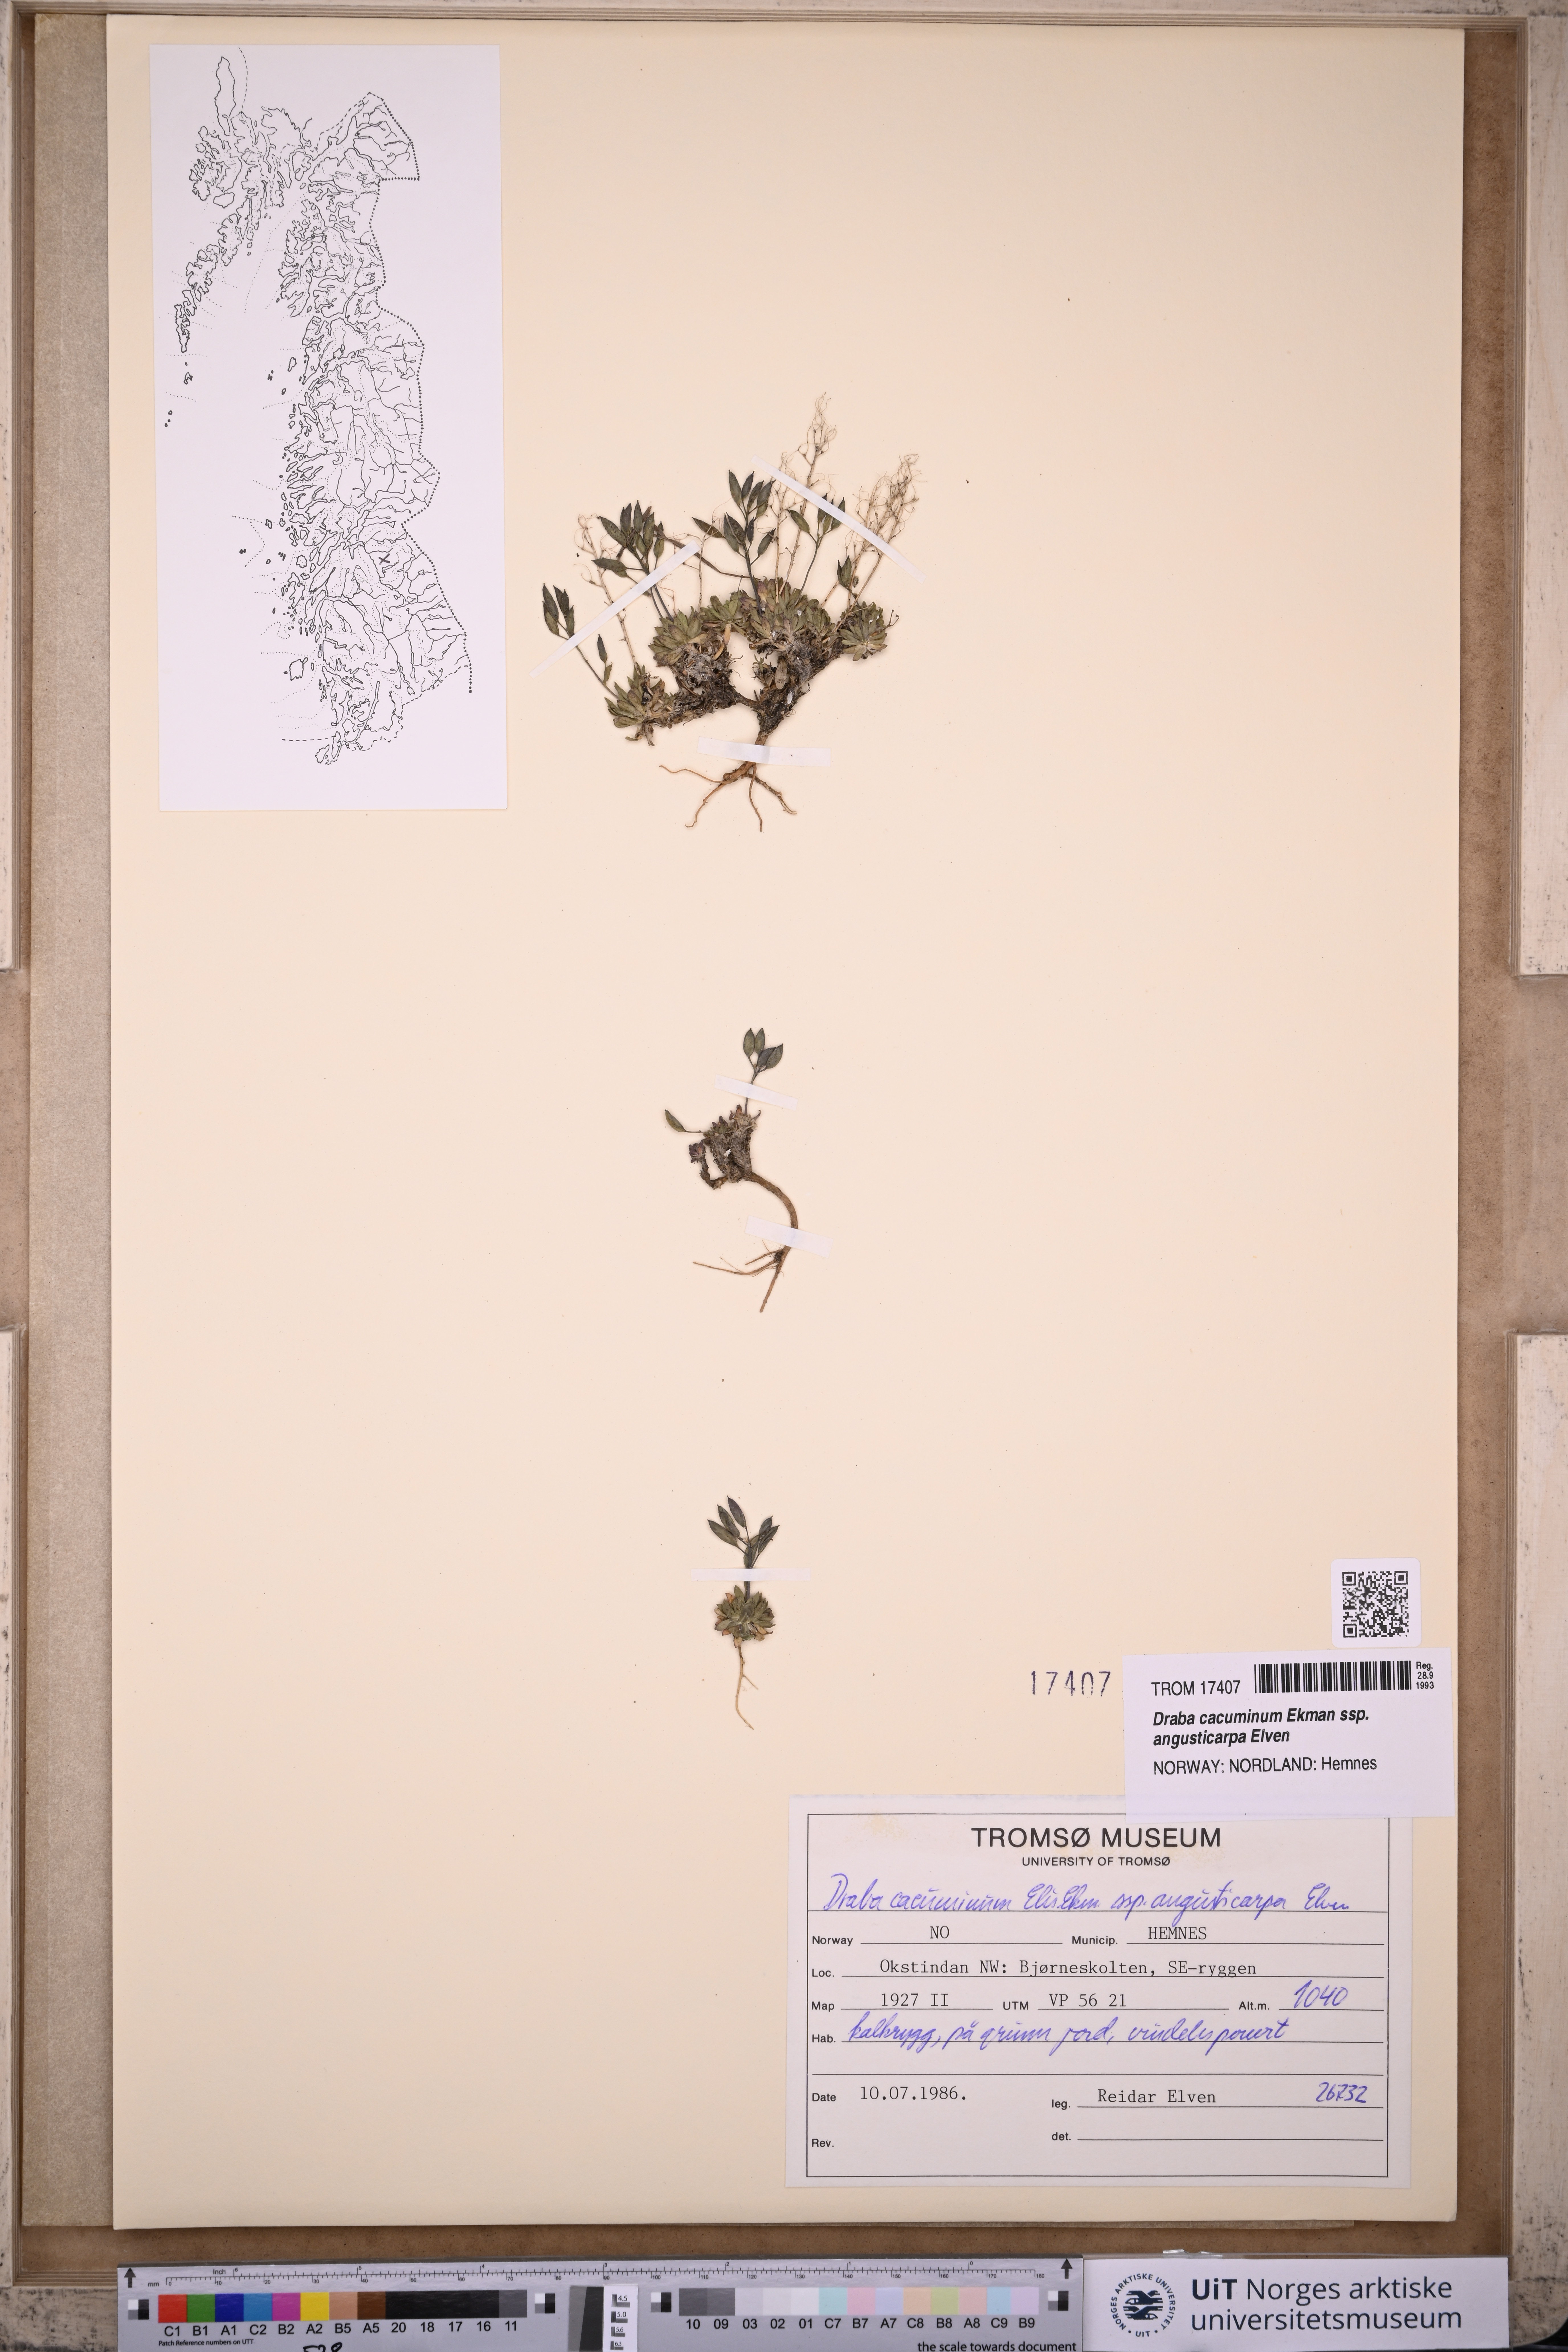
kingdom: Plantae
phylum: Tracheophyta
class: Magnoliopsida
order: Brassicales
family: Brassicaceae
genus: Draba
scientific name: Draba cacuminum
